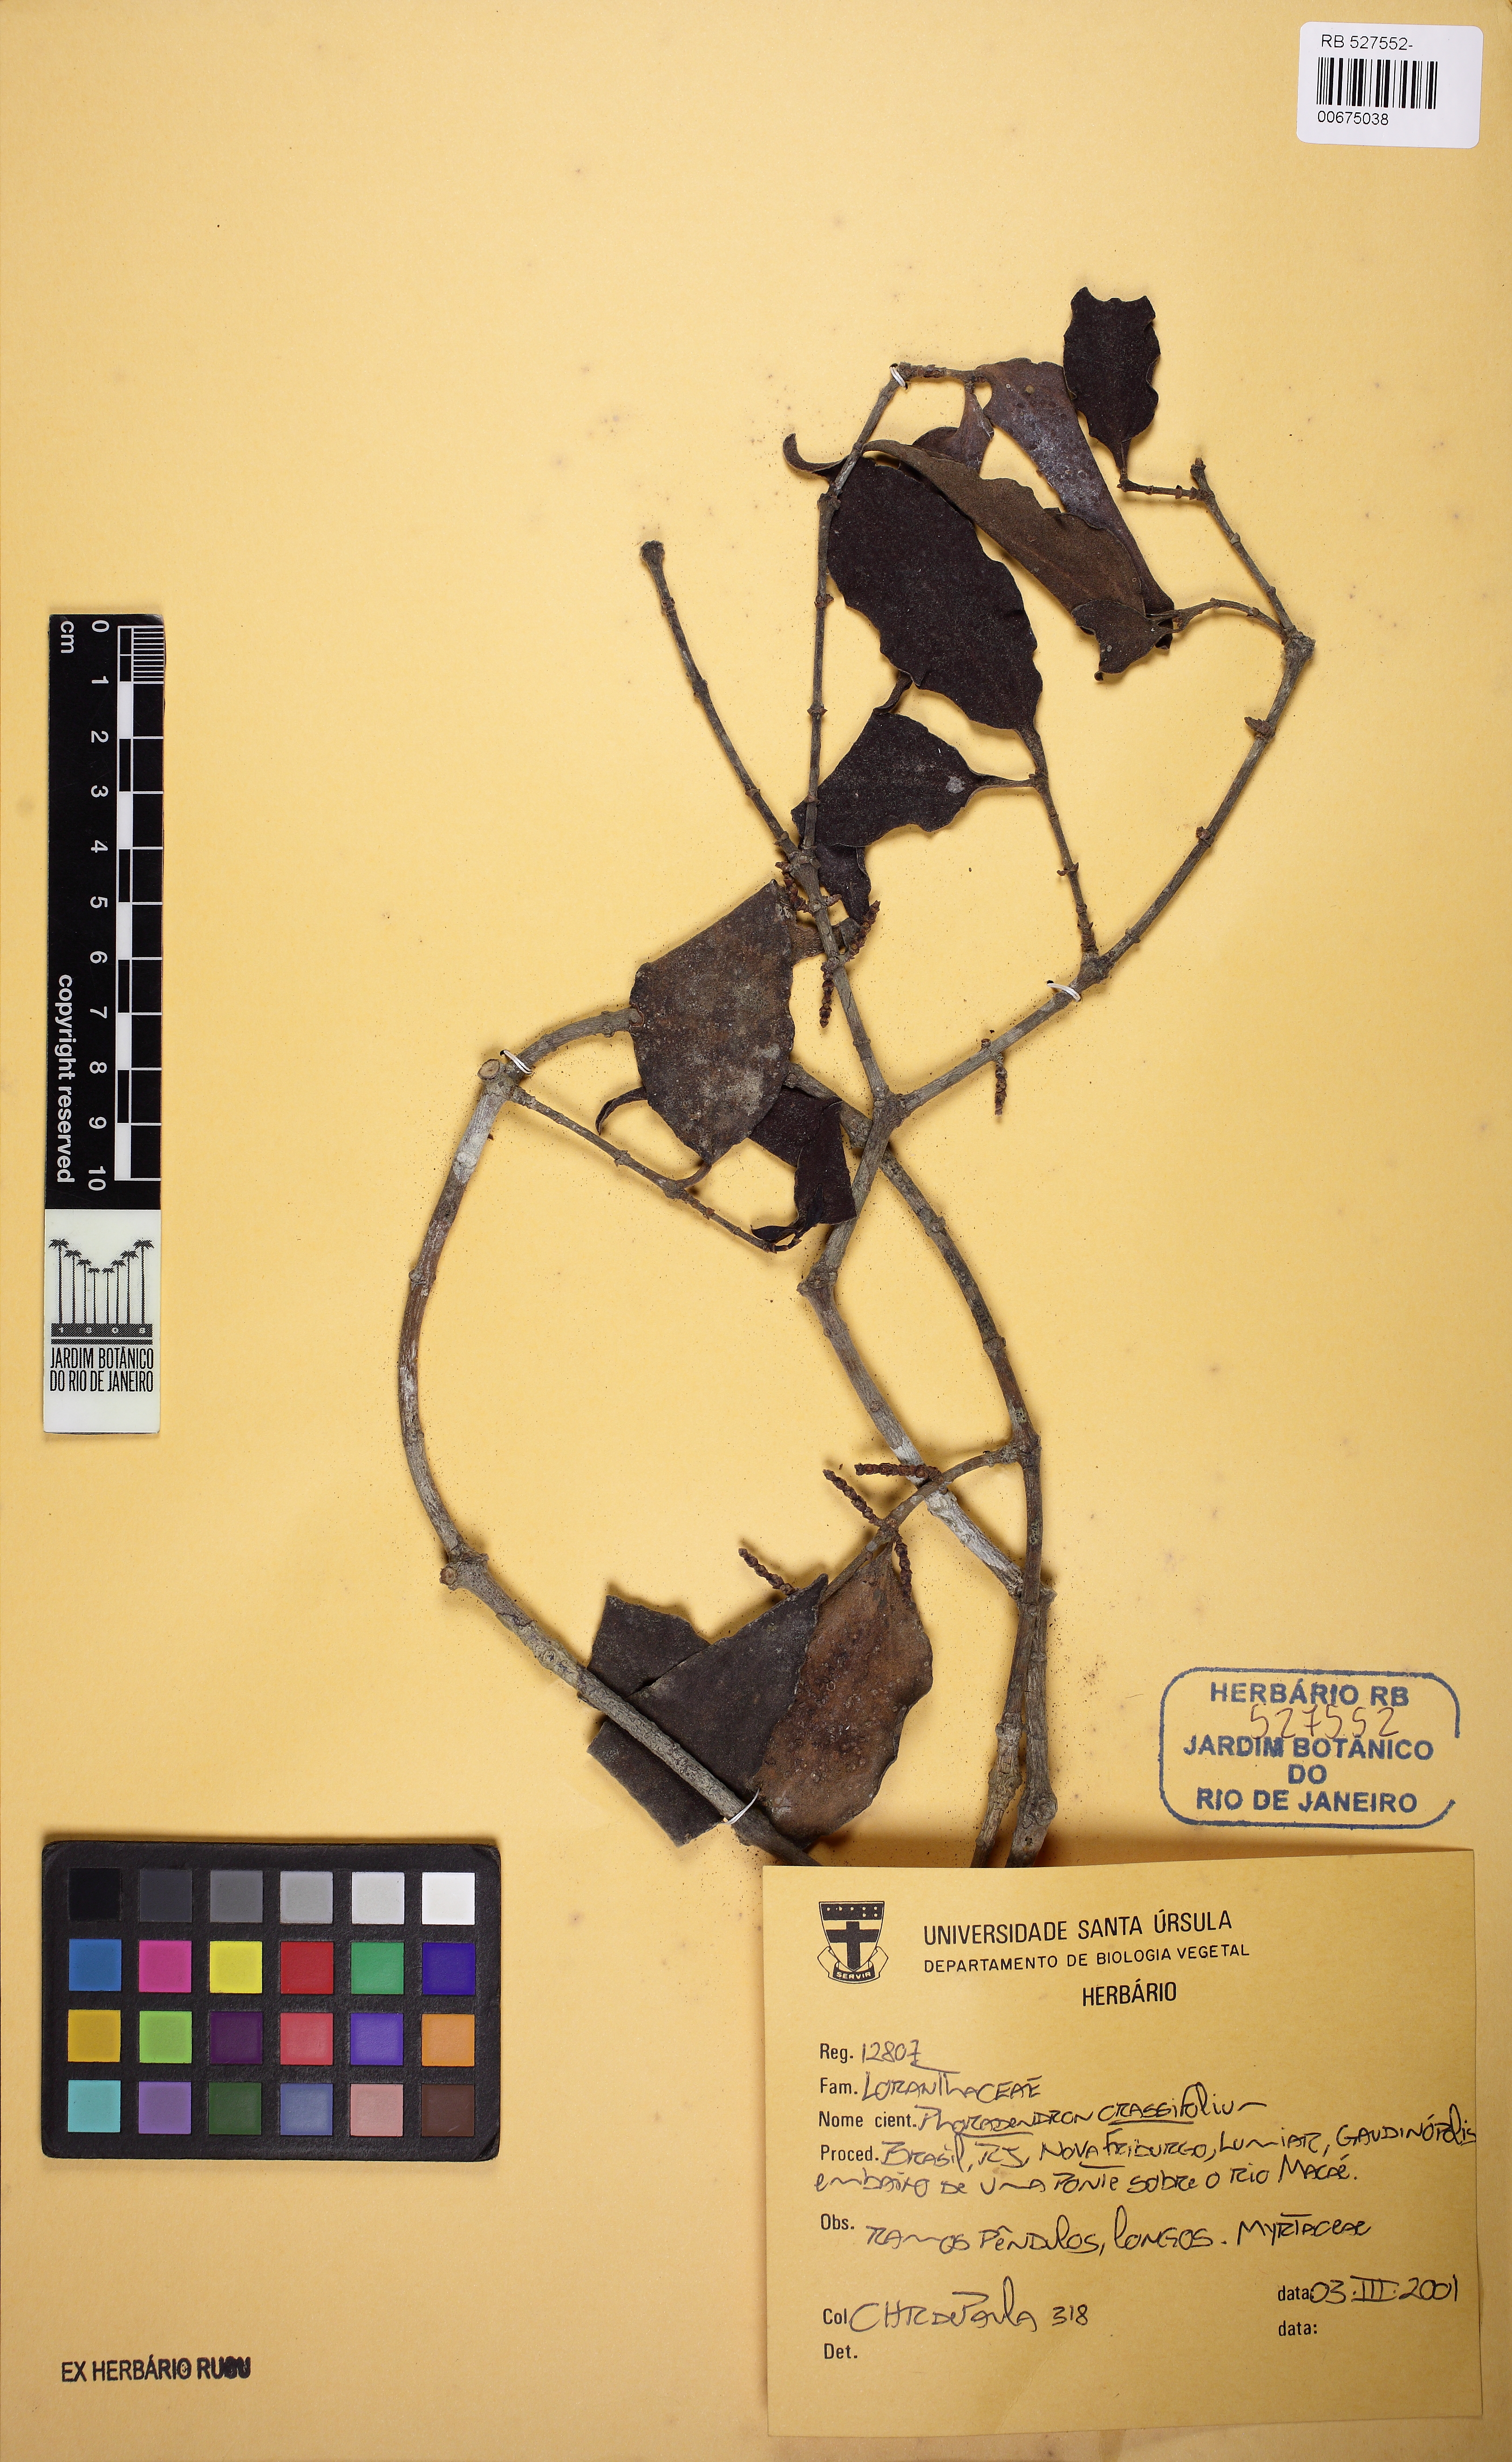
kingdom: Plantae
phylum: Tracheophyta
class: Magnoliopsida
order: Santalales
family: Viscaceae
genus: Phoradendron
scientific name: Phoradendron crassifolium
